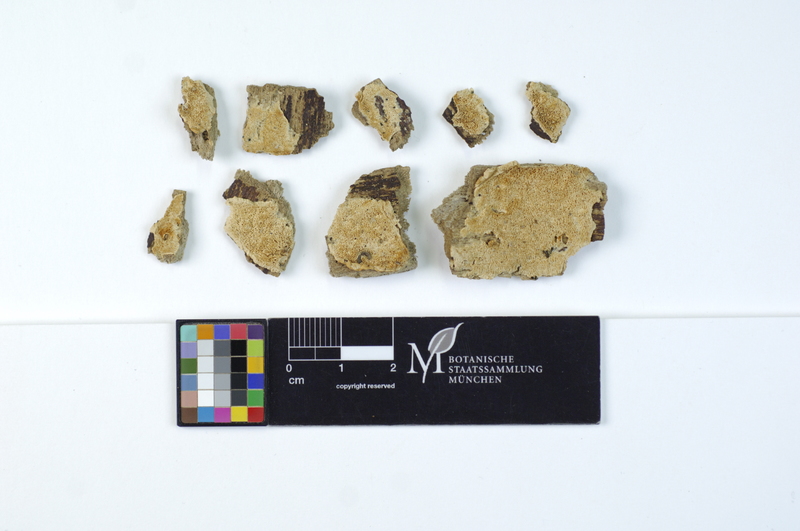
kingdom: Plantae
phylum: Tracheophyta
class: Magnoliopsida
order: Rosales
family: Ulmaceae
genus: Ulmus
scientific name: Ulmus
